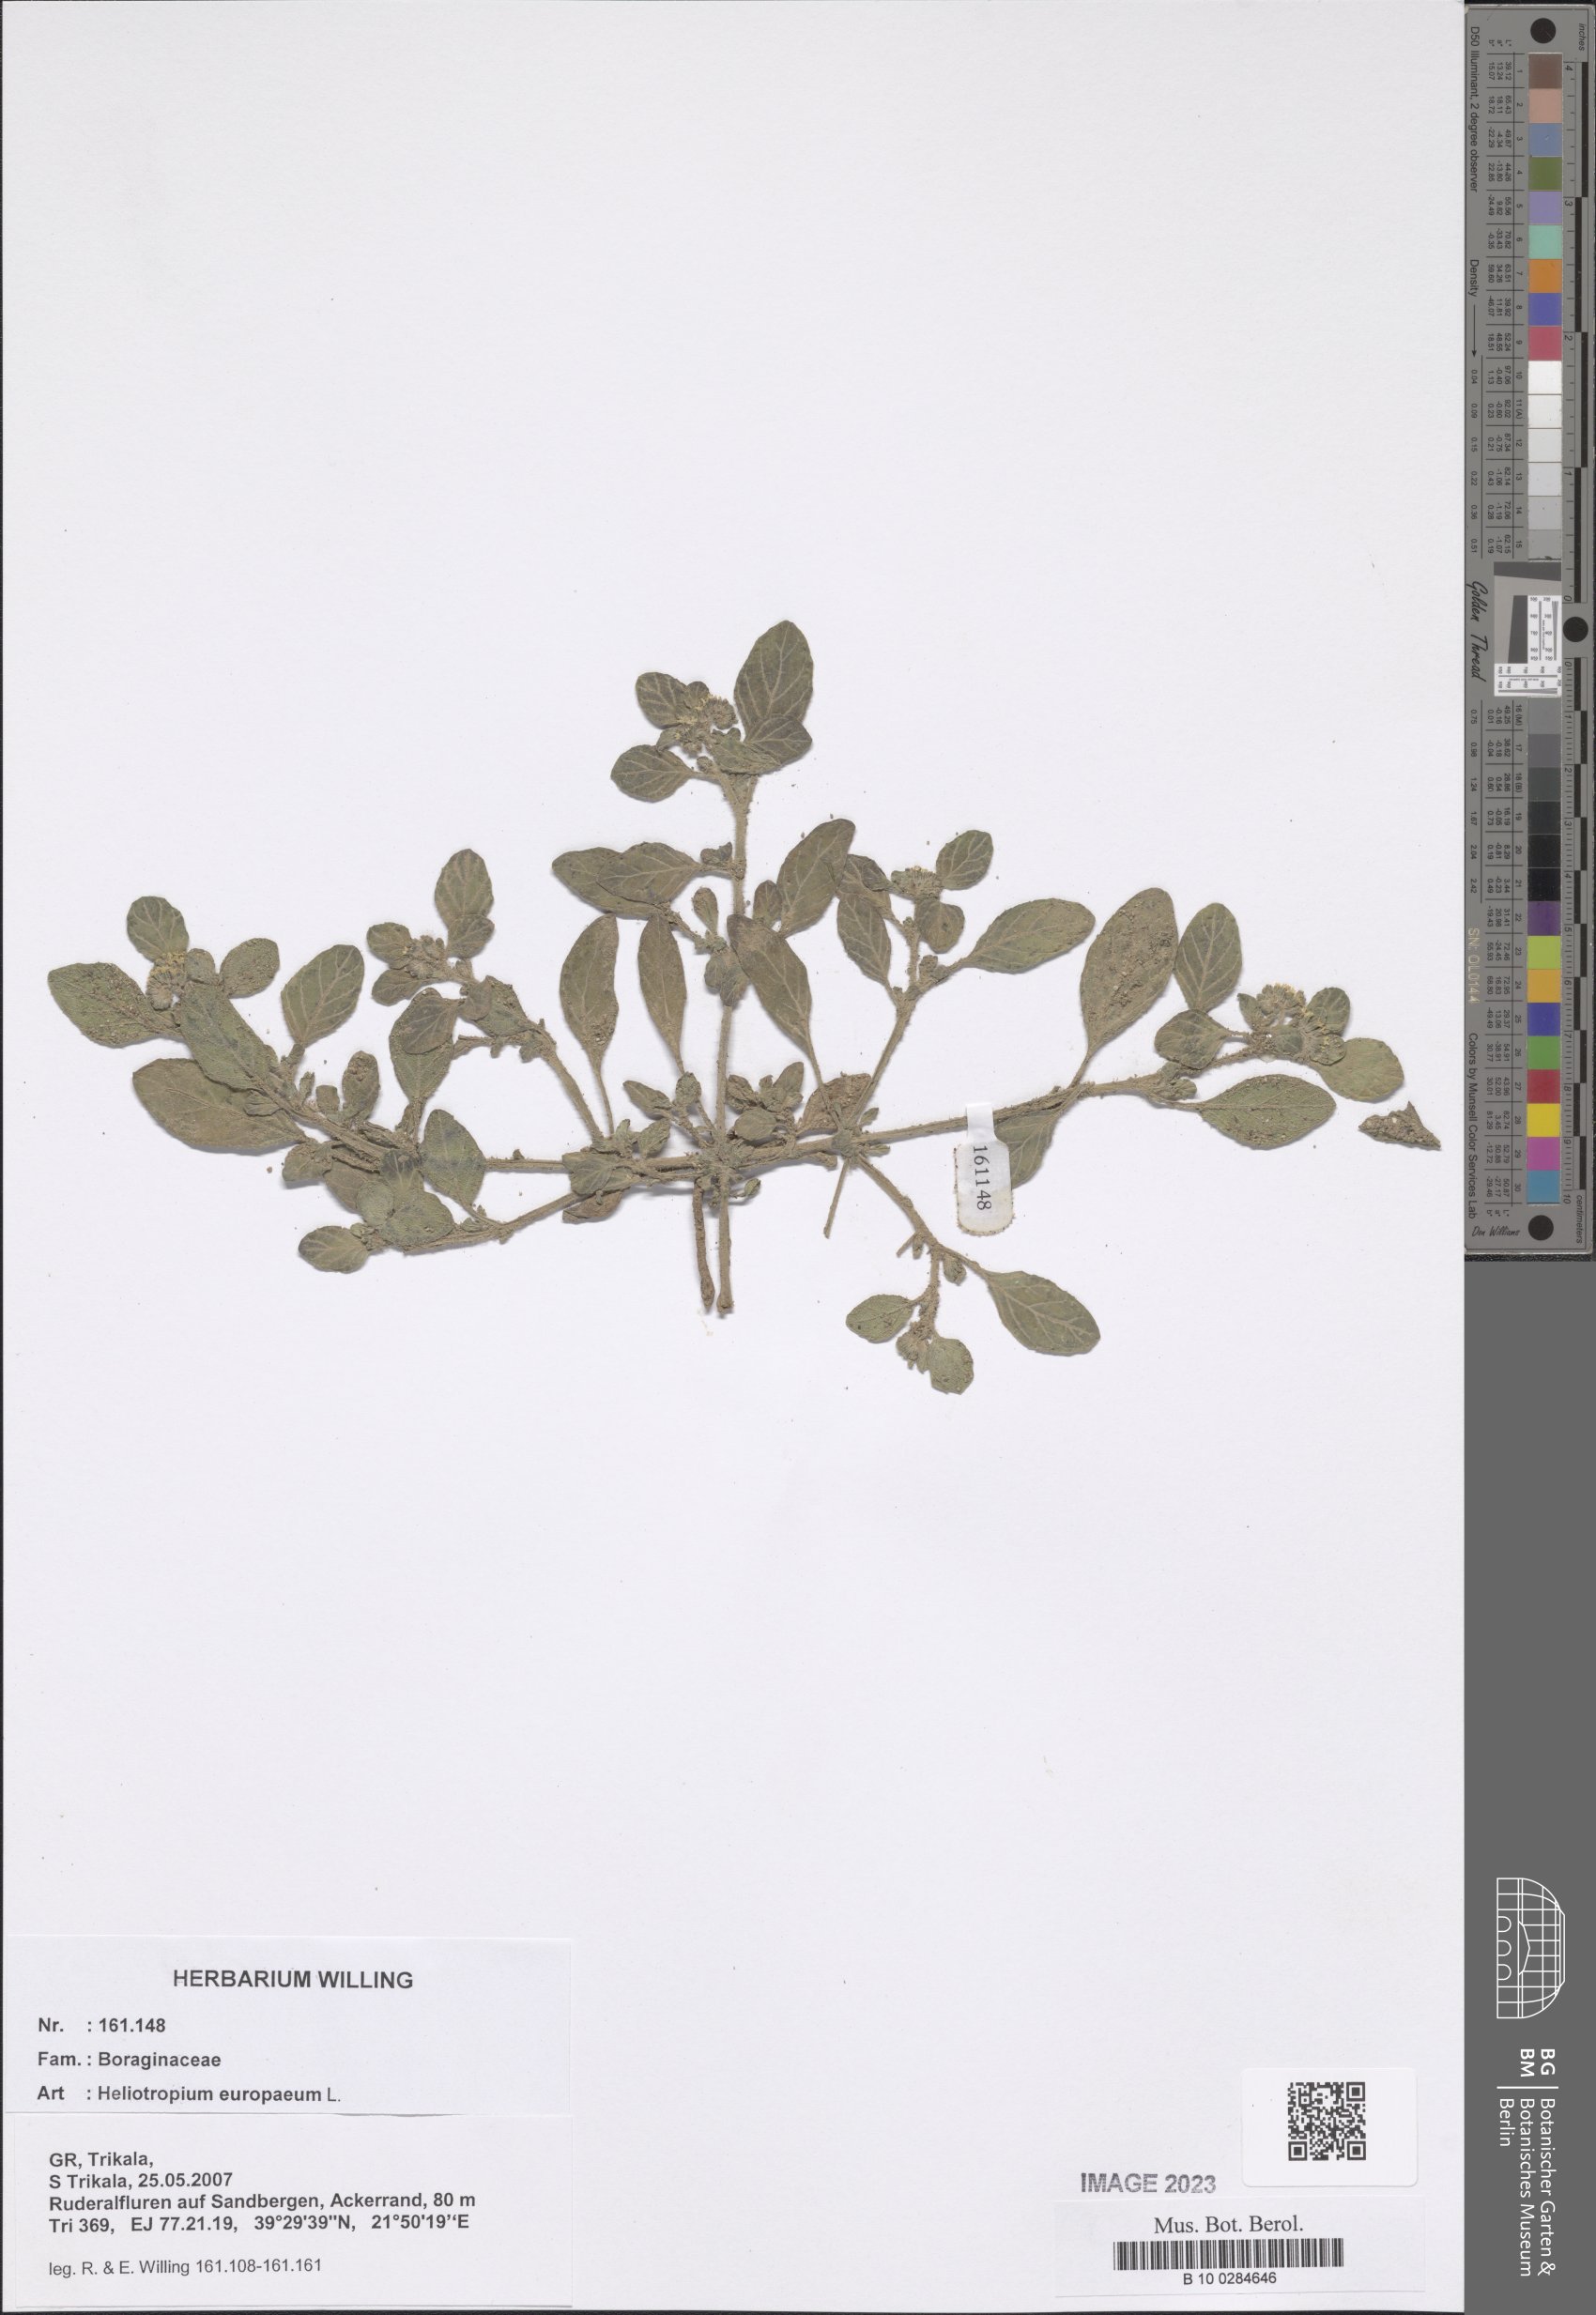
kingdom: Plantae
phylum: Tracheophyta
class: Magnoliopsida
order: Boraginales
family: Heliotropiaceae
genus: Heliotropium
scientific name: Heliotropium europaeum
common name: European heliotrope
